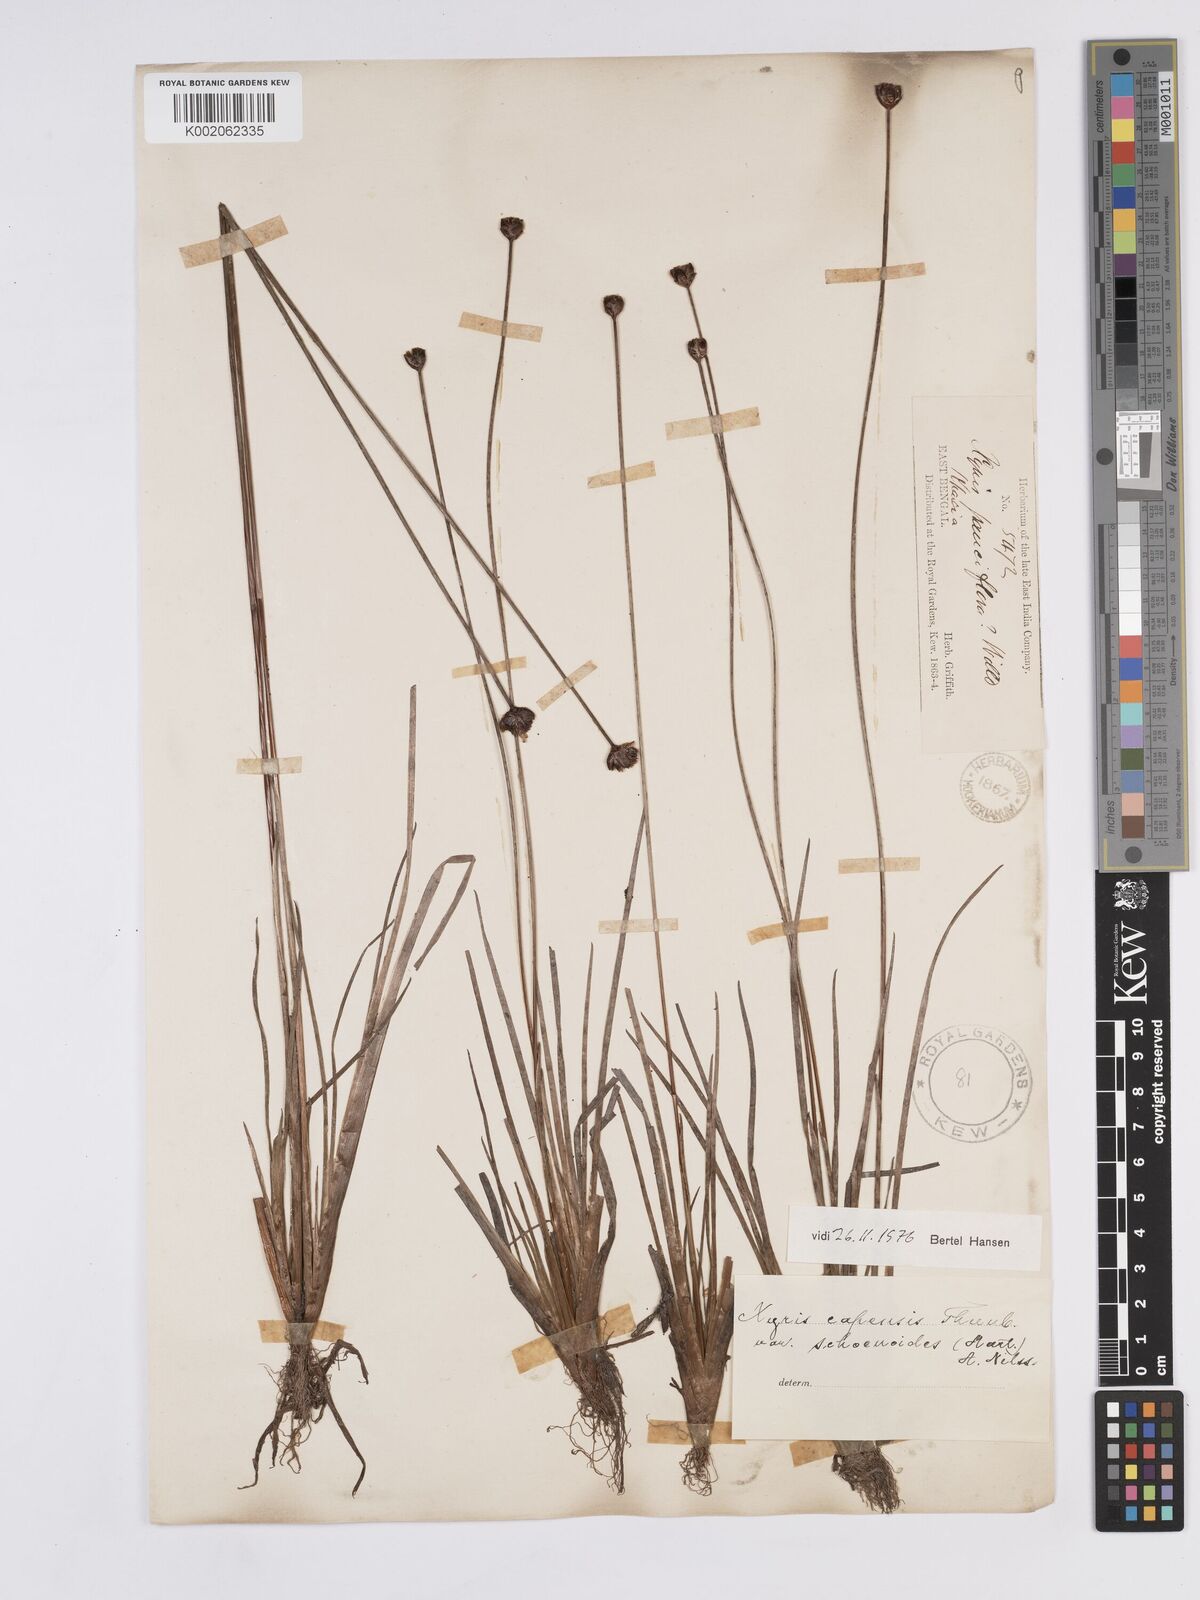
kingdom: Plantae
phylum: Tracheophyta
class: Liliopsida
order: Poales
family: Xyridaceae
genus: Xyris
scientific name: Xyris capensis
